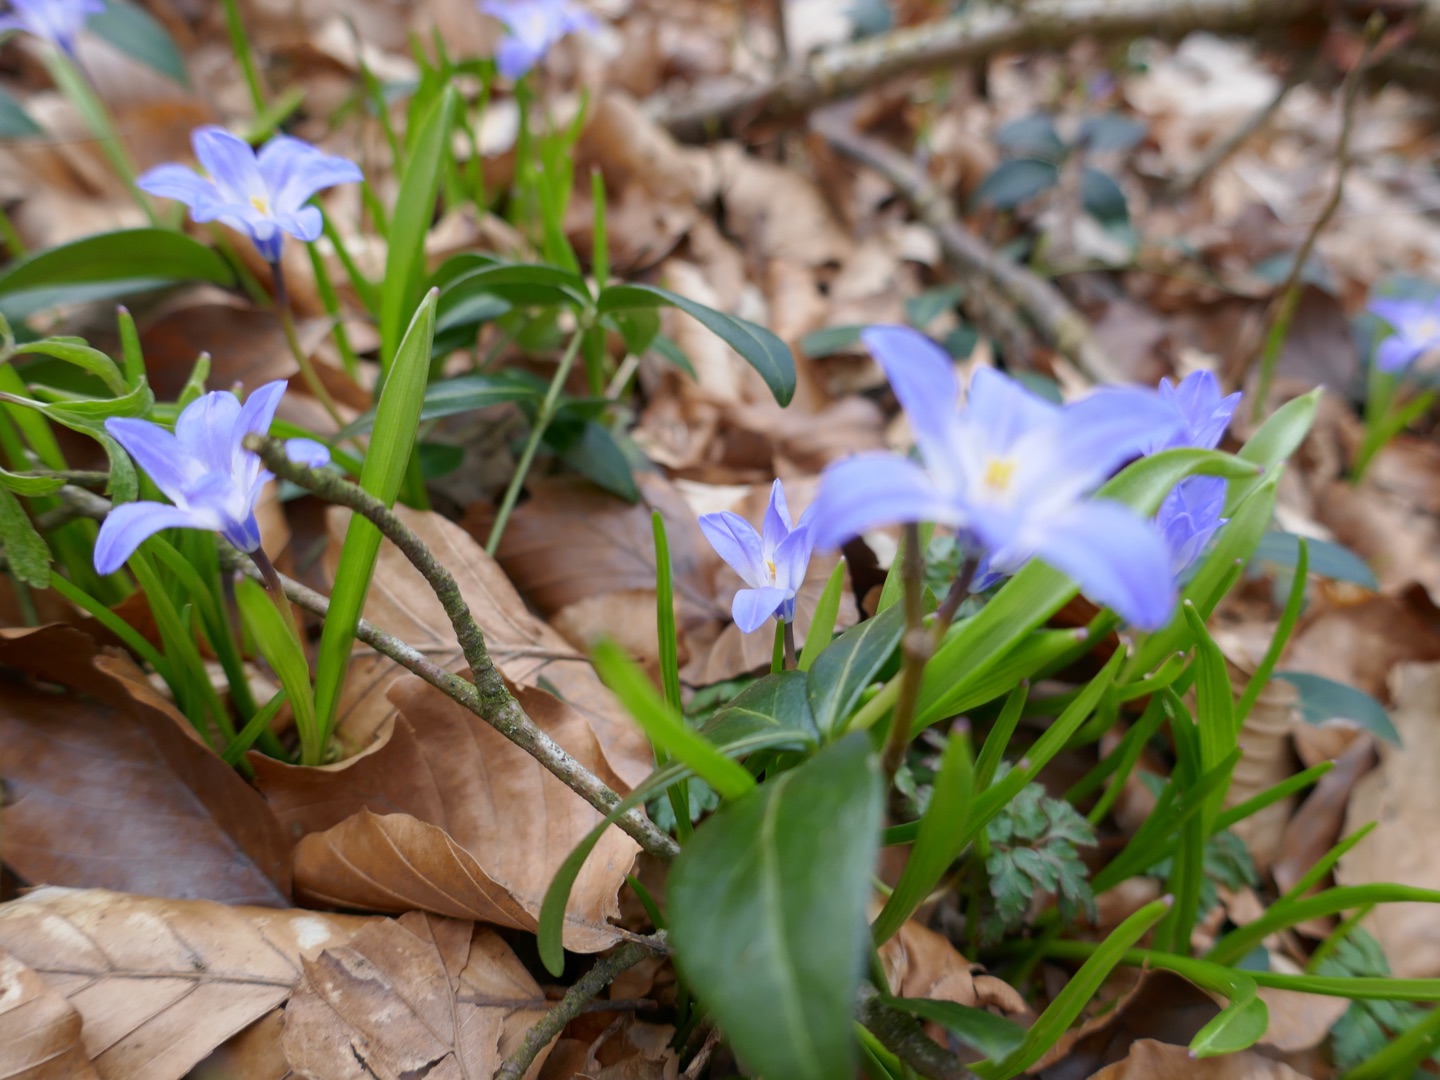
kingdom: Plantae
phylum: Tracheophyta
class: Liliopsida
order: Asparagales
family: Asparagaceae
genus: Scilla
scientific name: Scilla luciliae
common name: Stor snepryd
